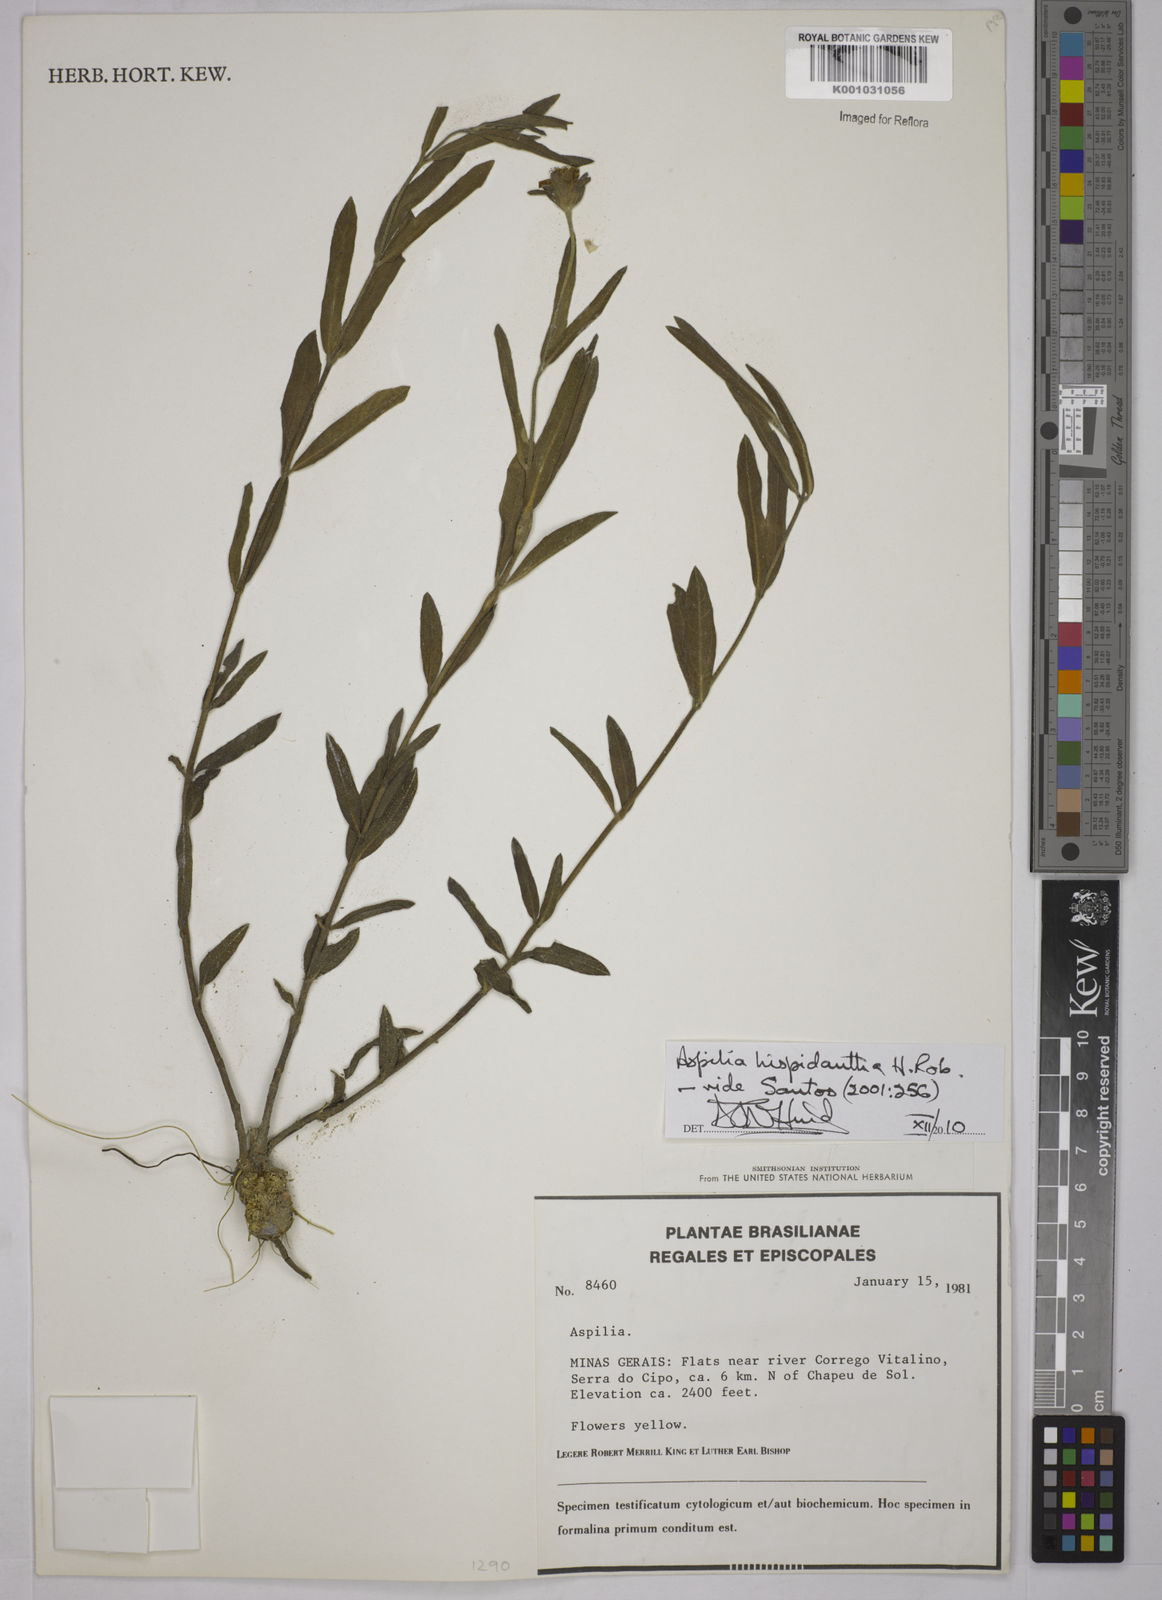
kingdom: Plantae
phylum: Tracheophyta
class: Magnoliopsida
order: Asterales
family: Asteraceae
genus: Wedelia
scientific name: Wedelia subalpestris
